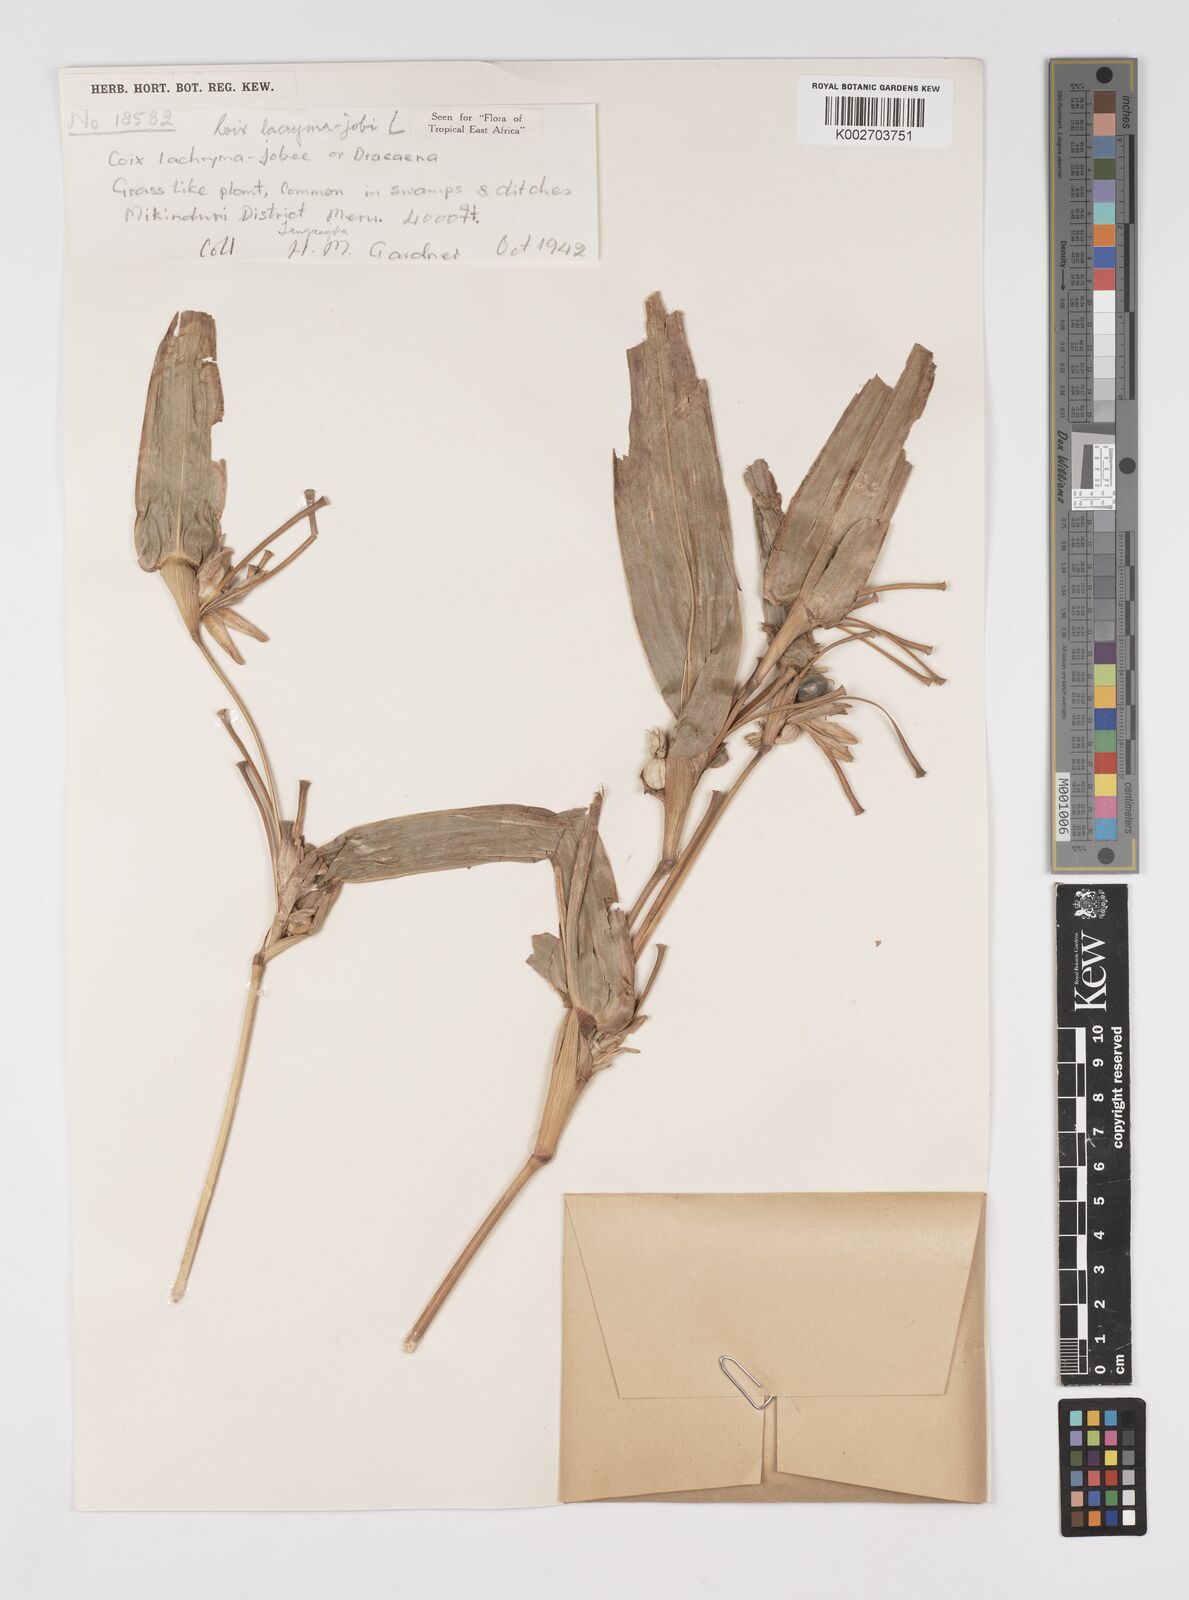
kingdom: Plantae
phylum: Tracheophyta
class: Liliopsida
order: Poales
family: Poaceae
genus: Coix
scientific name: Coix lacryma-jobi
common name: Job's tears
